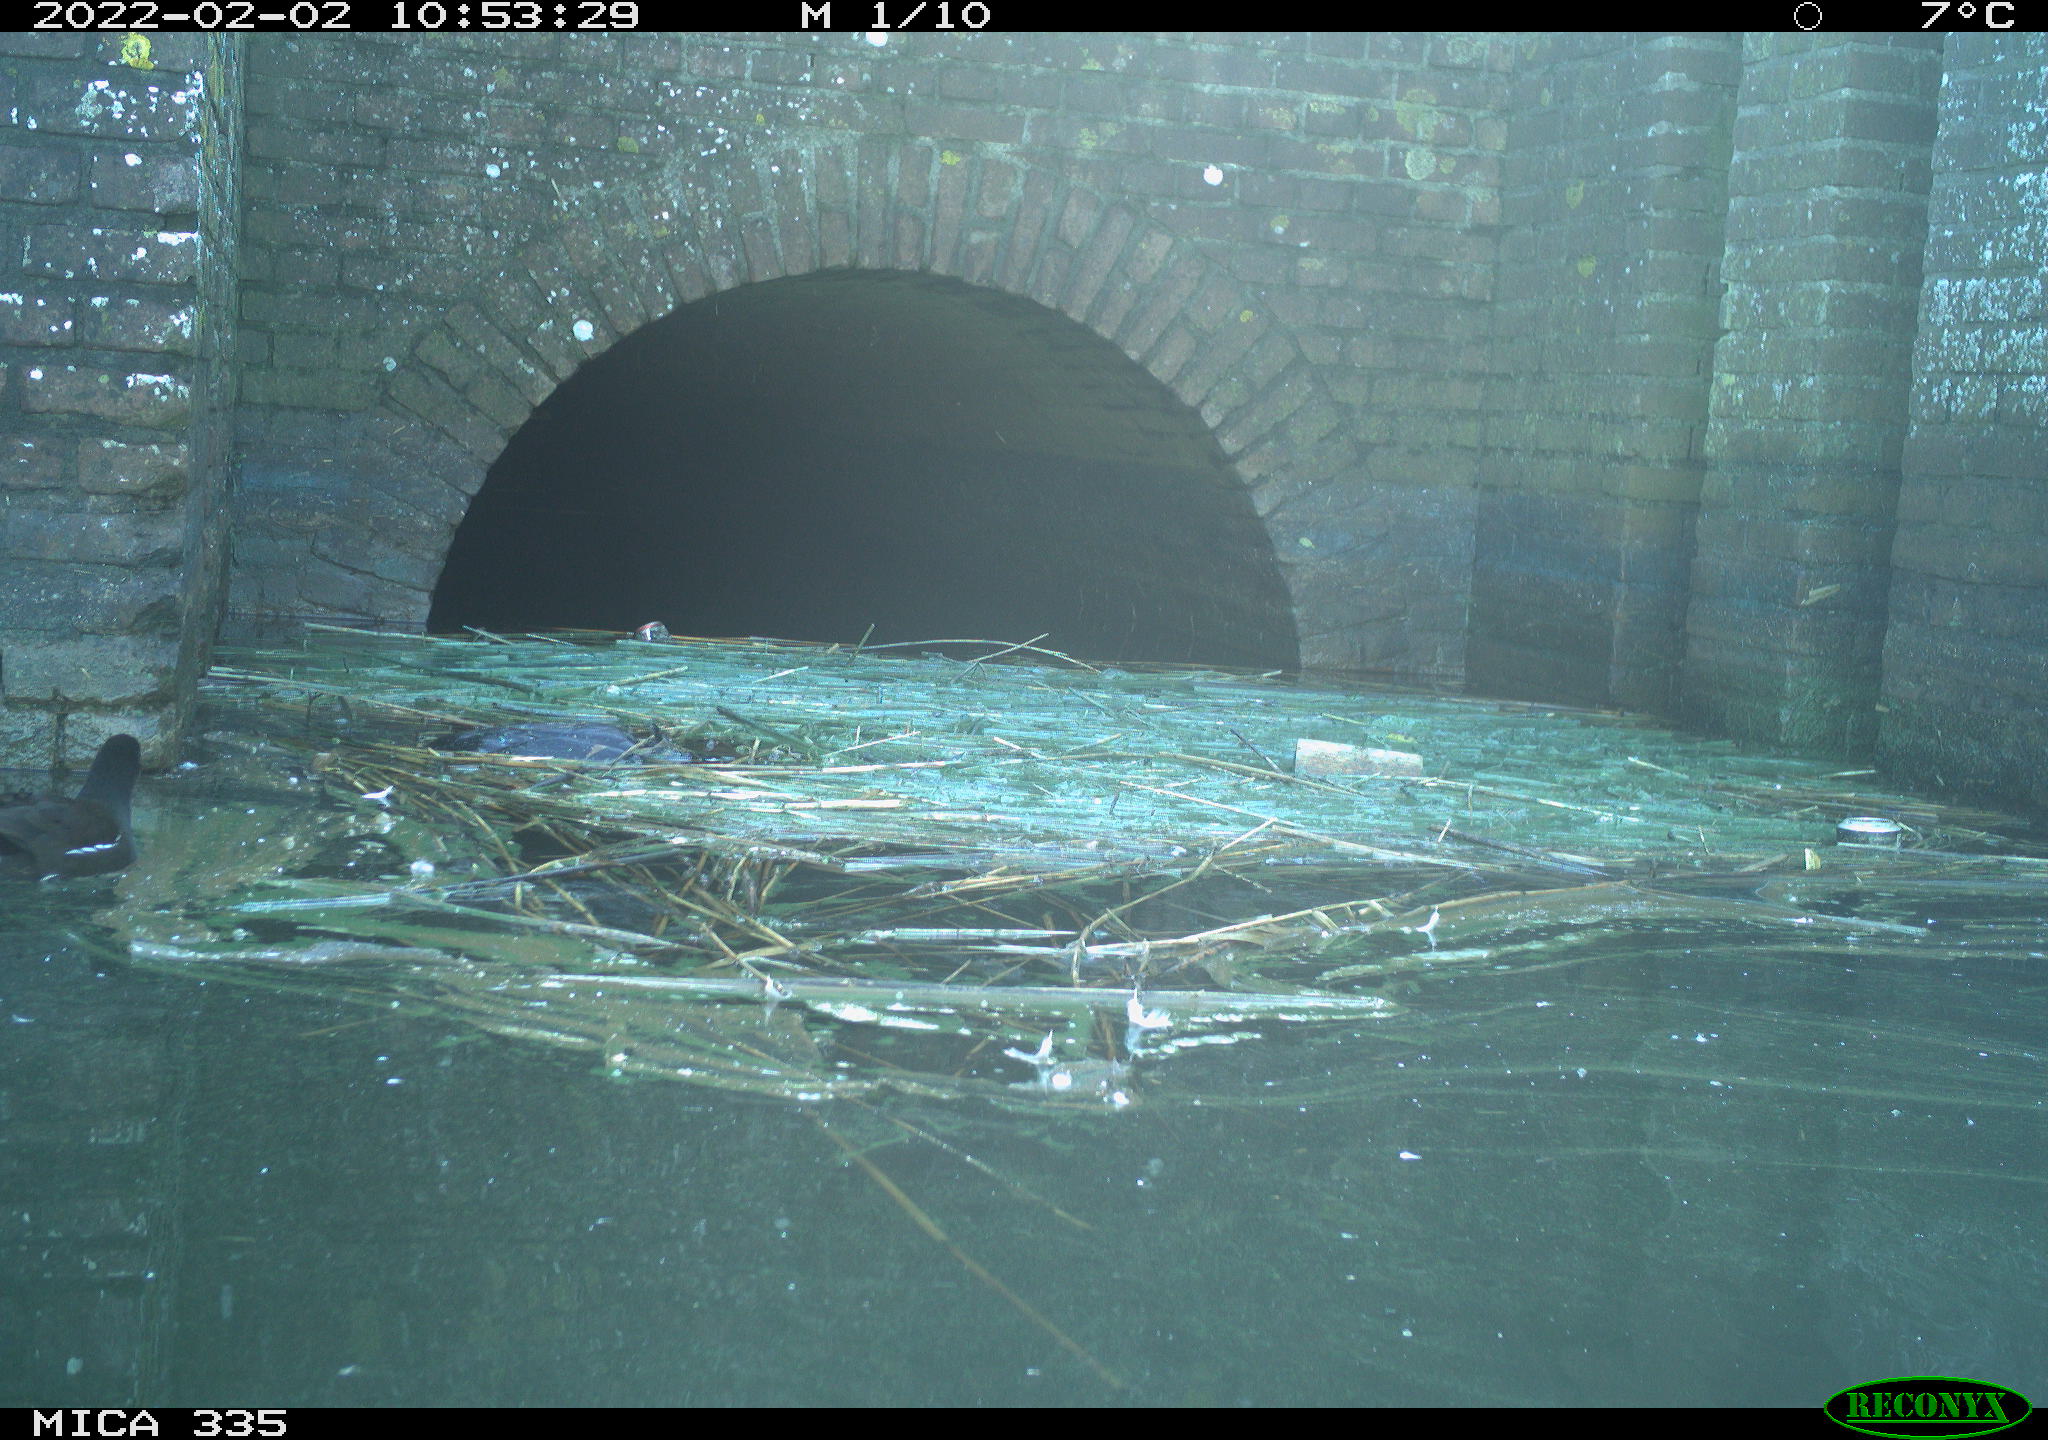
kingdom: Animalia
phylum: Chordata
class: Aves
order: Gruiformes
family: Rallidae
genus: Gallinula
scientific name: Gallinula chloropus
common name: Common moorhen
